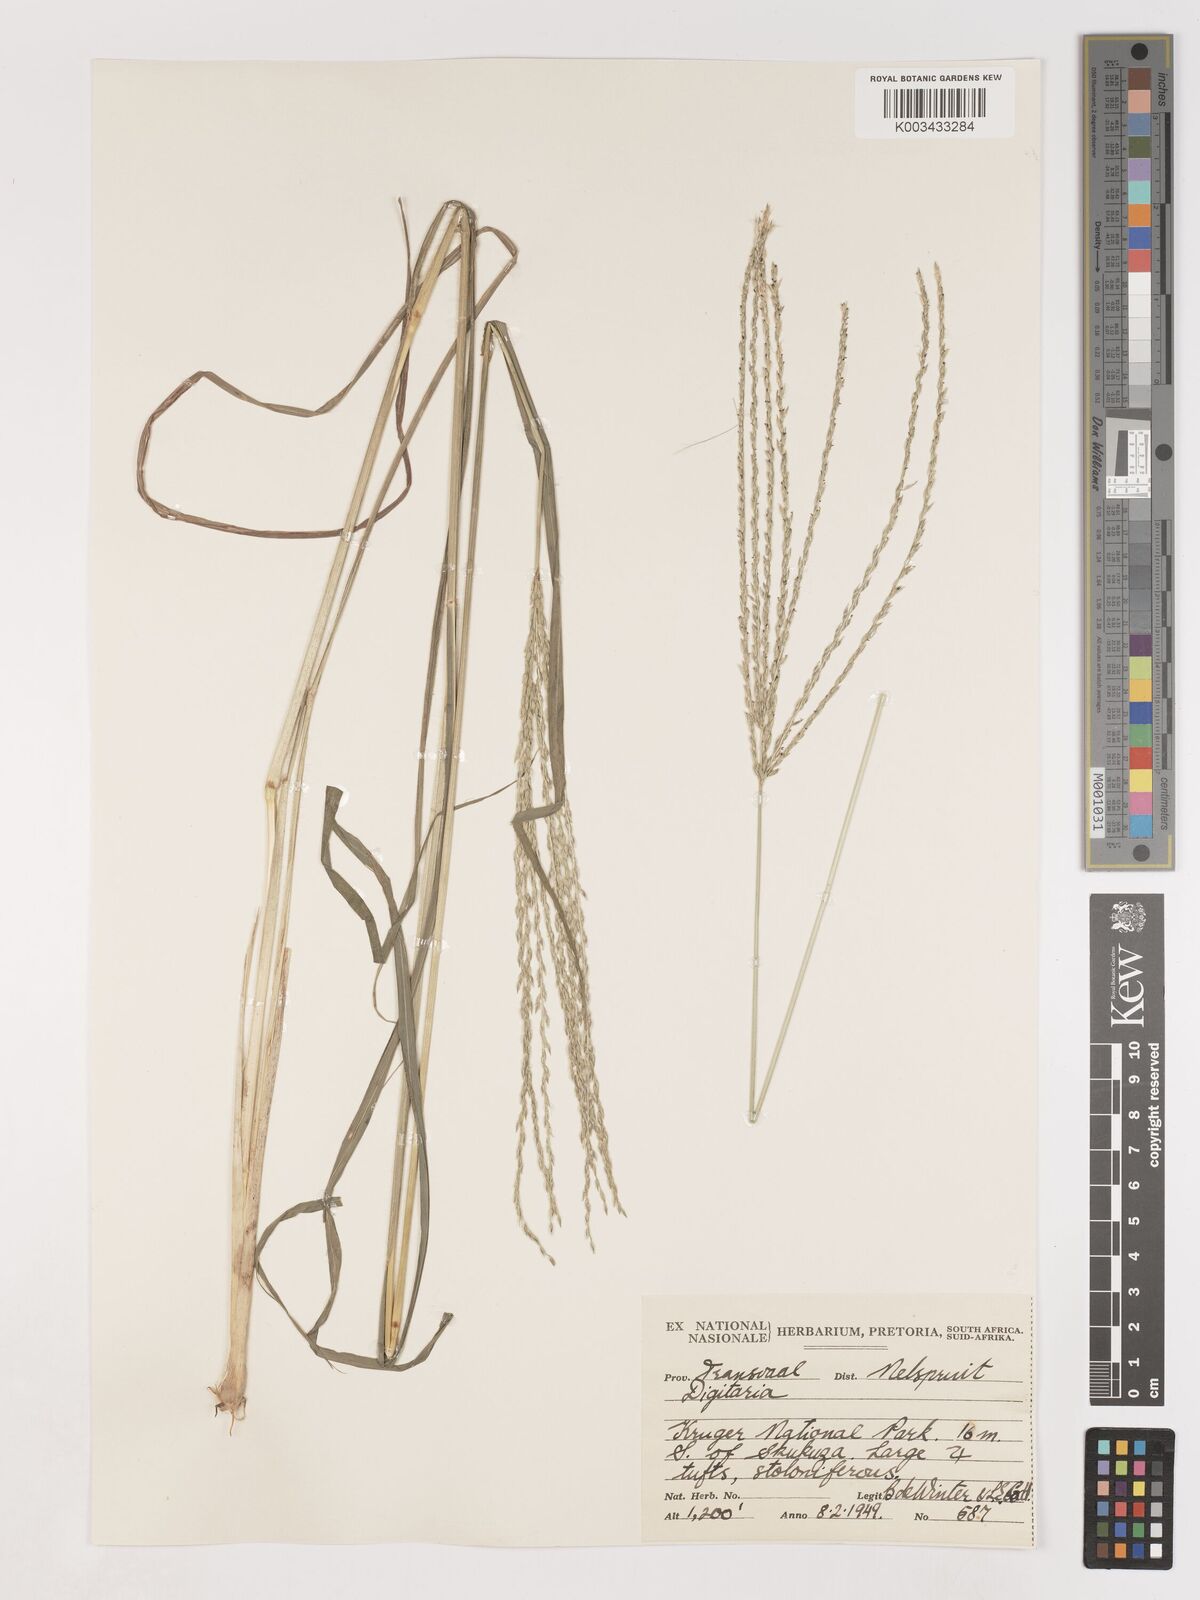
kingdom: Plantae
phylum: Tracheophyta
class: Liliopsida
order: Poales
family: Poaceae
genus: Digitaria
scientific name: Digitaria eriantha
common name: Digitgrass
